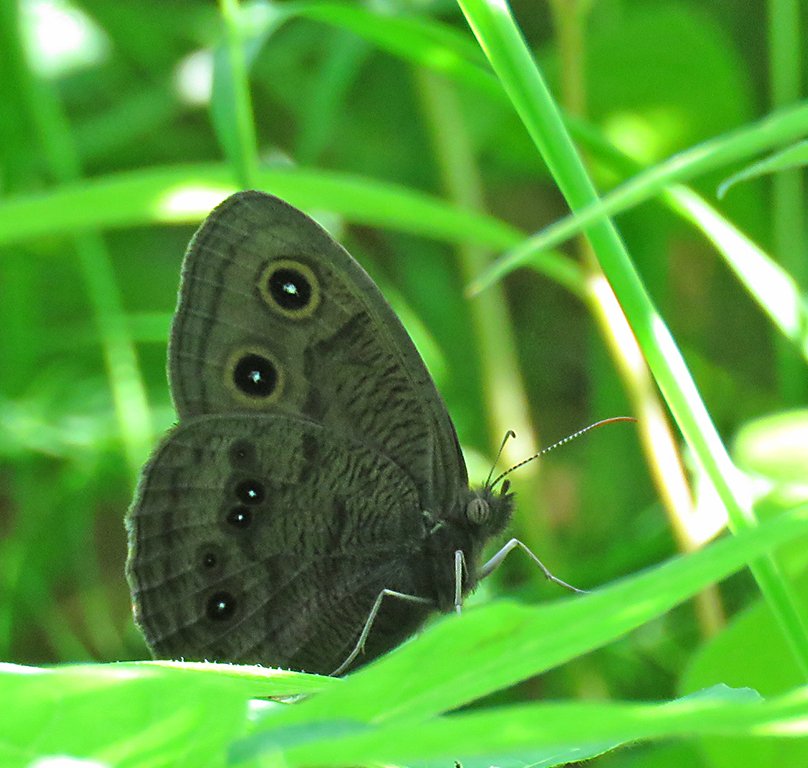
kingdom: Animalia
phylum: Arthropoda
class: Insecta
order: Lepidoptera
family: Nymphalidae
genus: Cercyonis
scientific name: Cercyonis pegala
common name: Common Wood-Nymph
